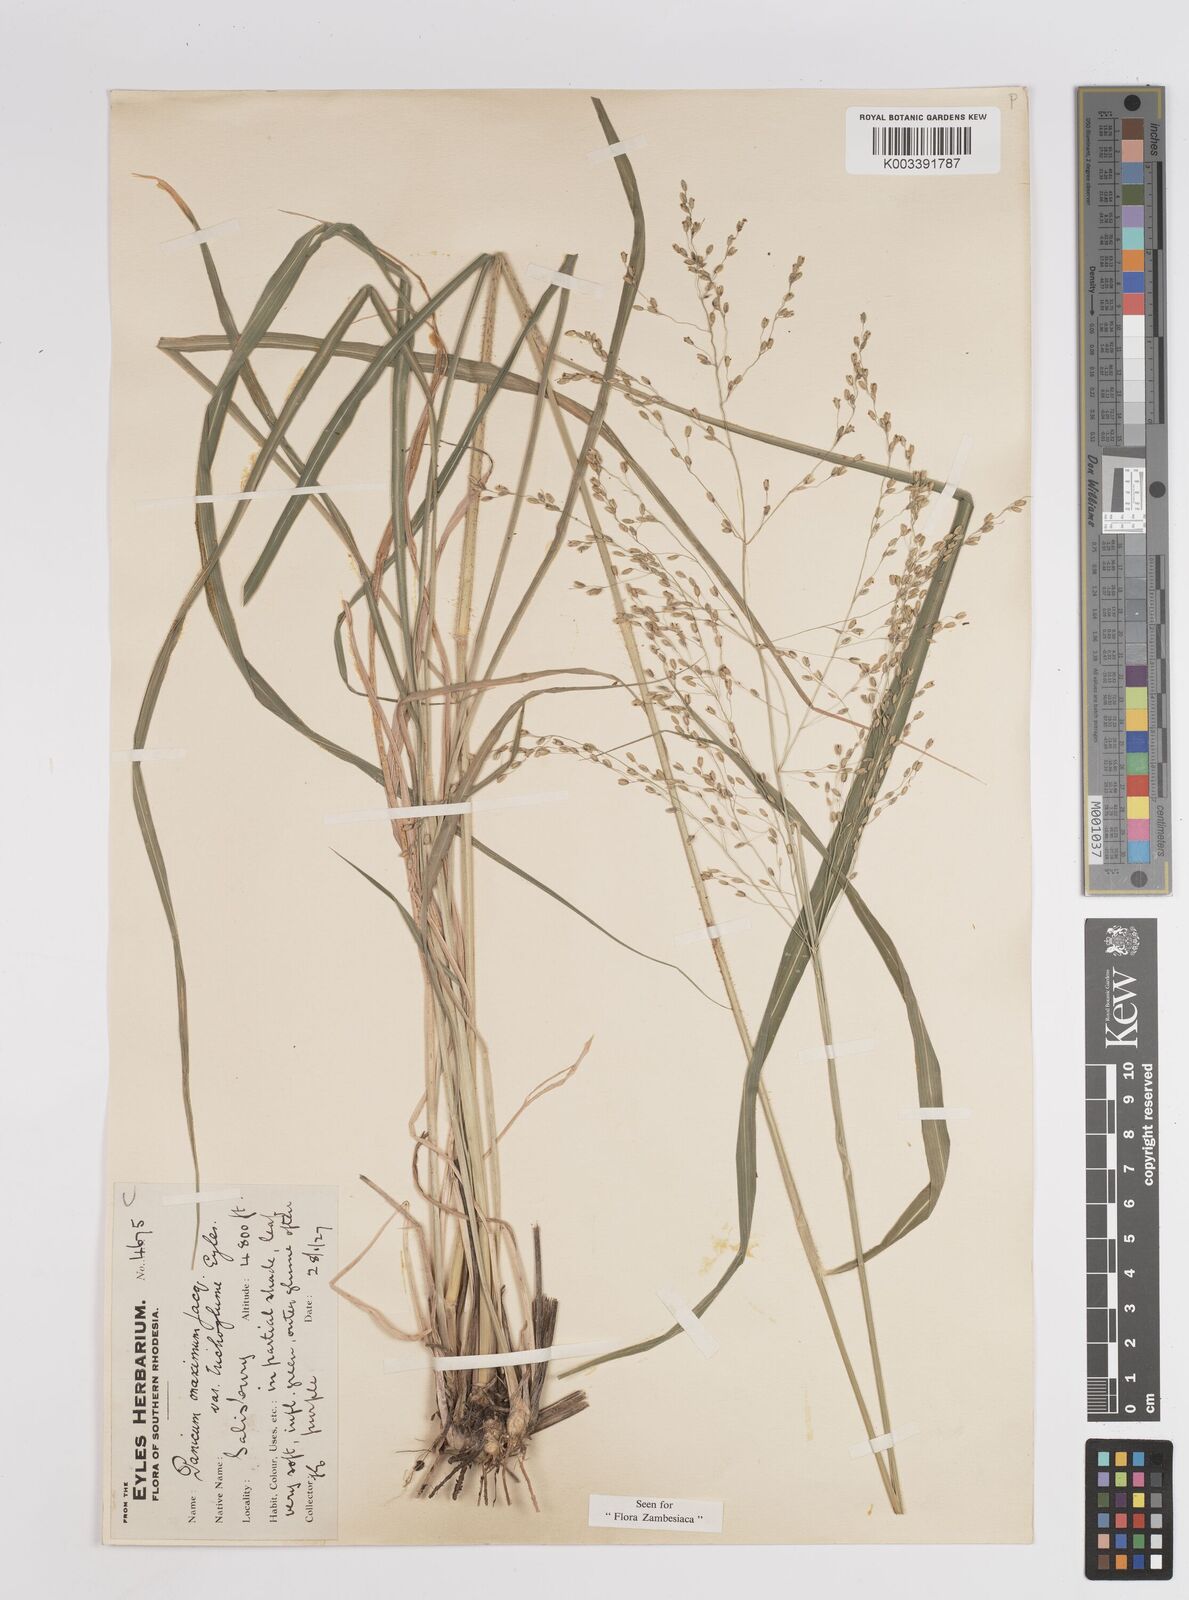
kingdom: Plantae
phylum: Tracheophyta
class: Liliopsida
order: Poales
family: Poaceae
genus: Megathyrsus
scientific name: Megathyrsus maximus
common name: Guineagrass
